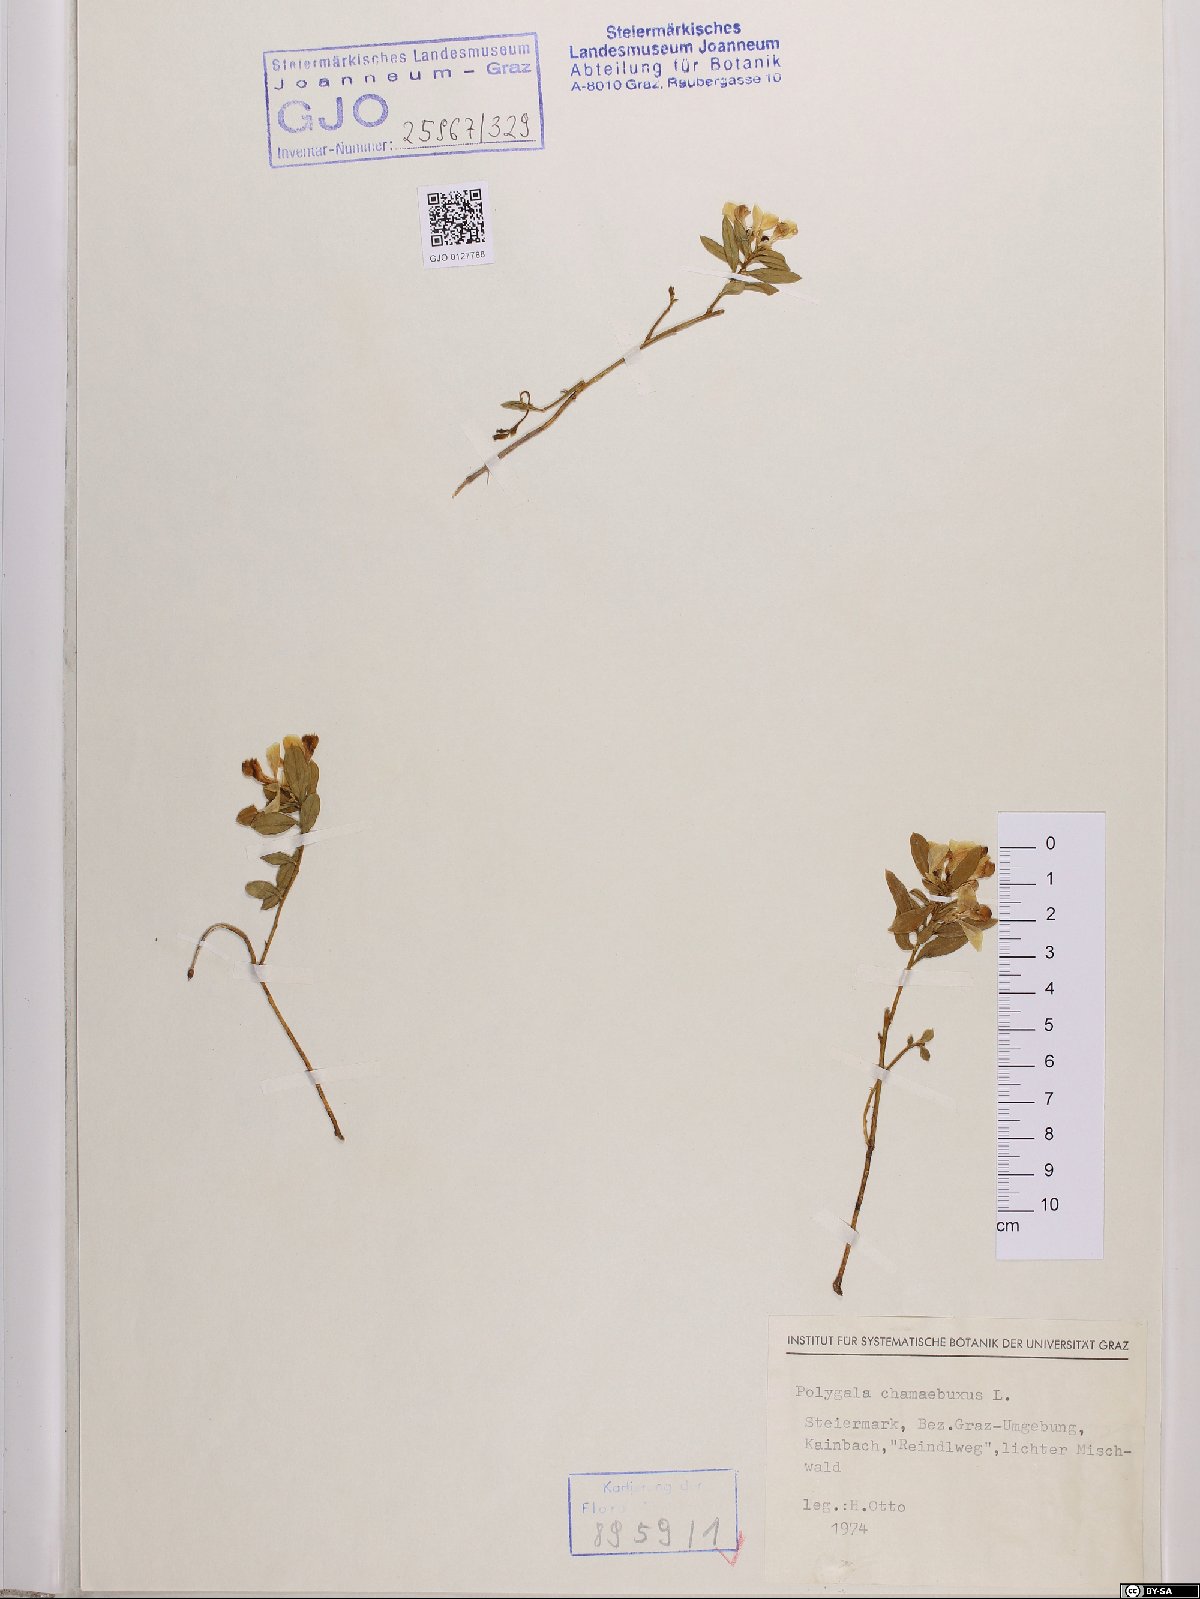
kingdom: Plantae
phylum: Tracheophyta
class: Magnoliopsida
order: Fabales
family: Polygalaceae
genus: Polygaloides
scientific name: Polygaloides chamaebuxus
